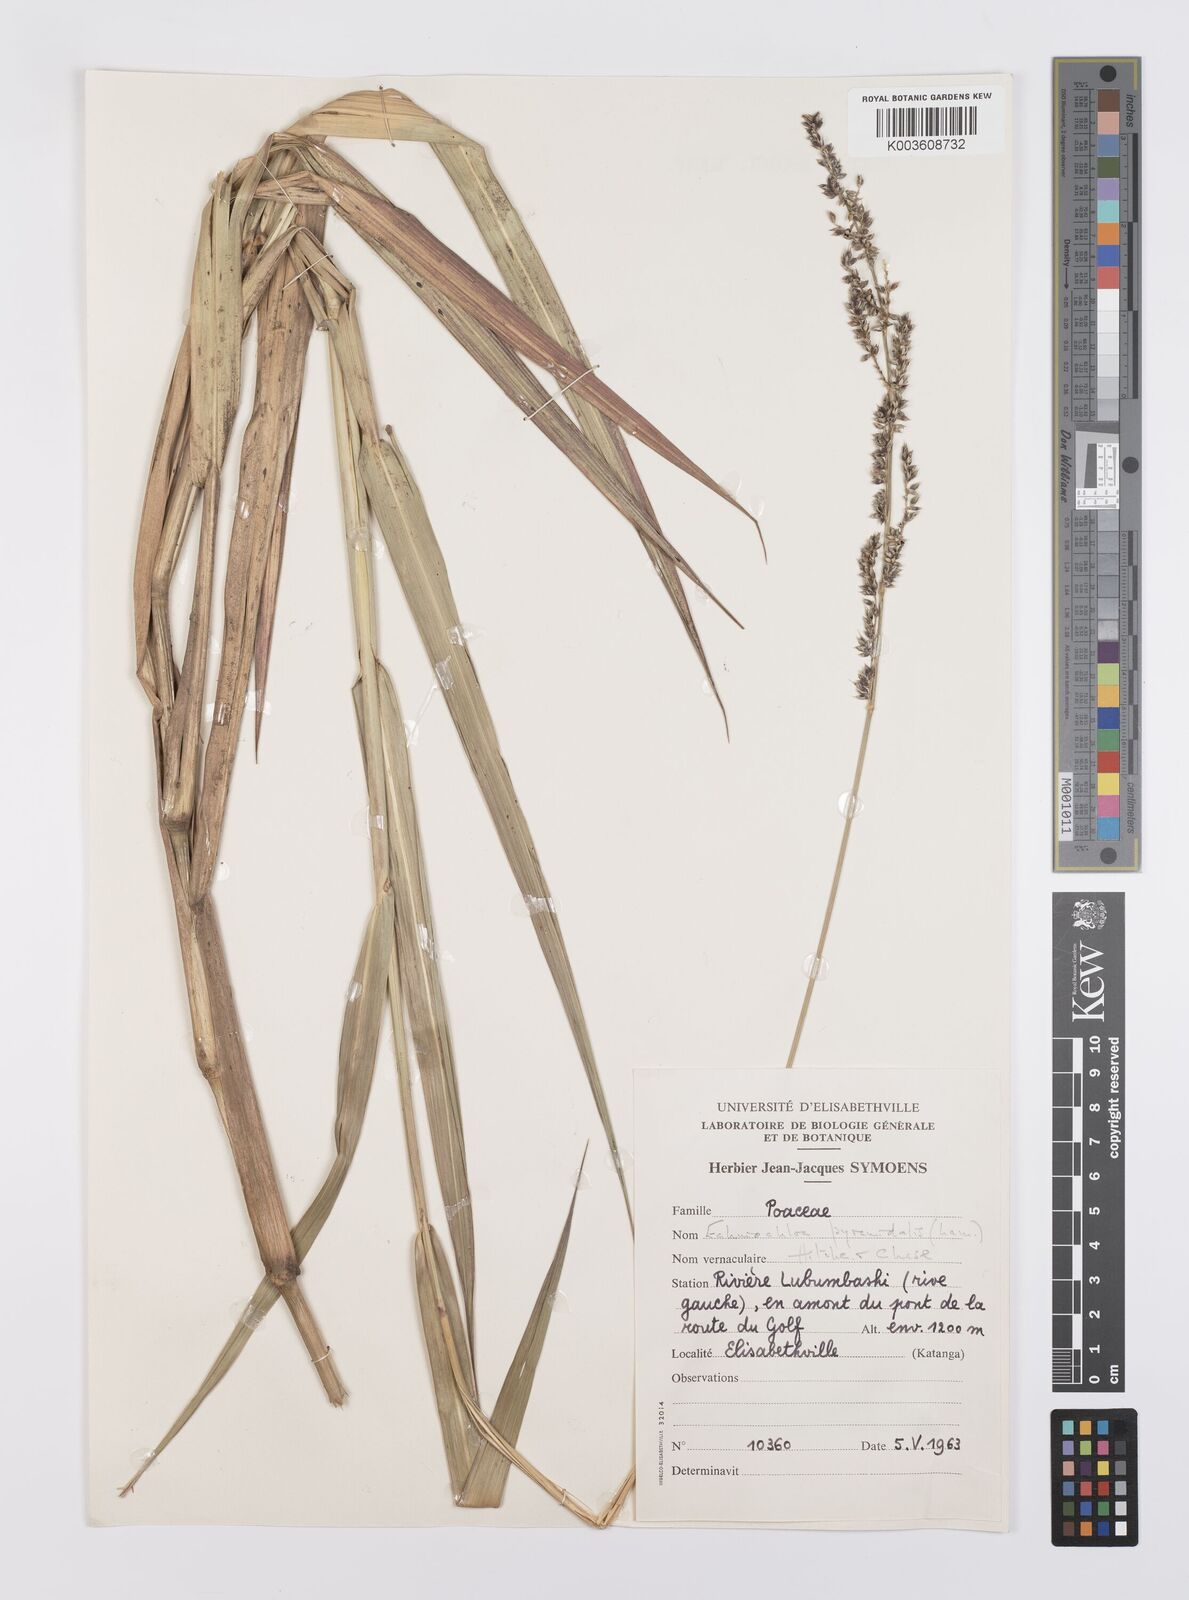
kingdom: Plantae
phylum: Tracheophyta
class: Liliopsida
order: Poales
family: Poaceae
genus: Echinochloa
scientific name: Echinochloa pyramidalis
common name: Antelope grass
